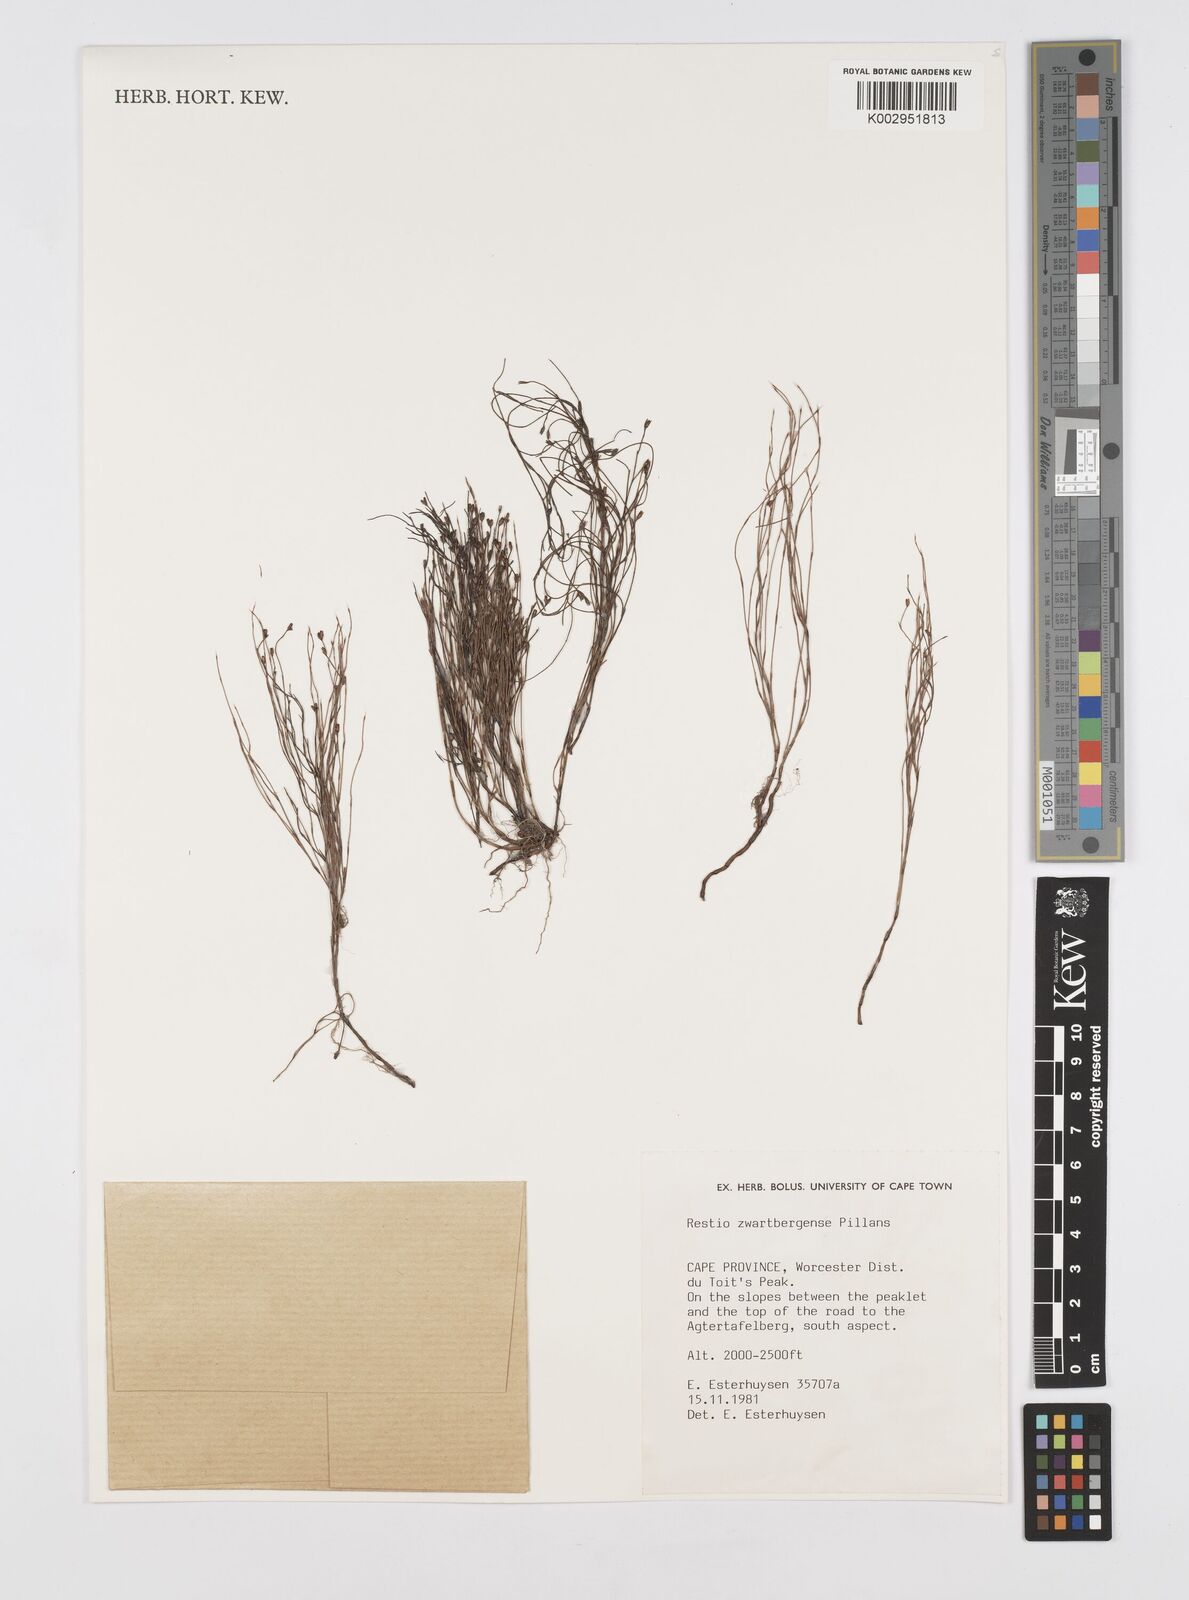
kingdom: Plantae
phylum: Tracheophyta
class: Liliopsida
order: Poales
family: Restionaceae
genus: Restio
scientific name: Restio zwartbergensis
